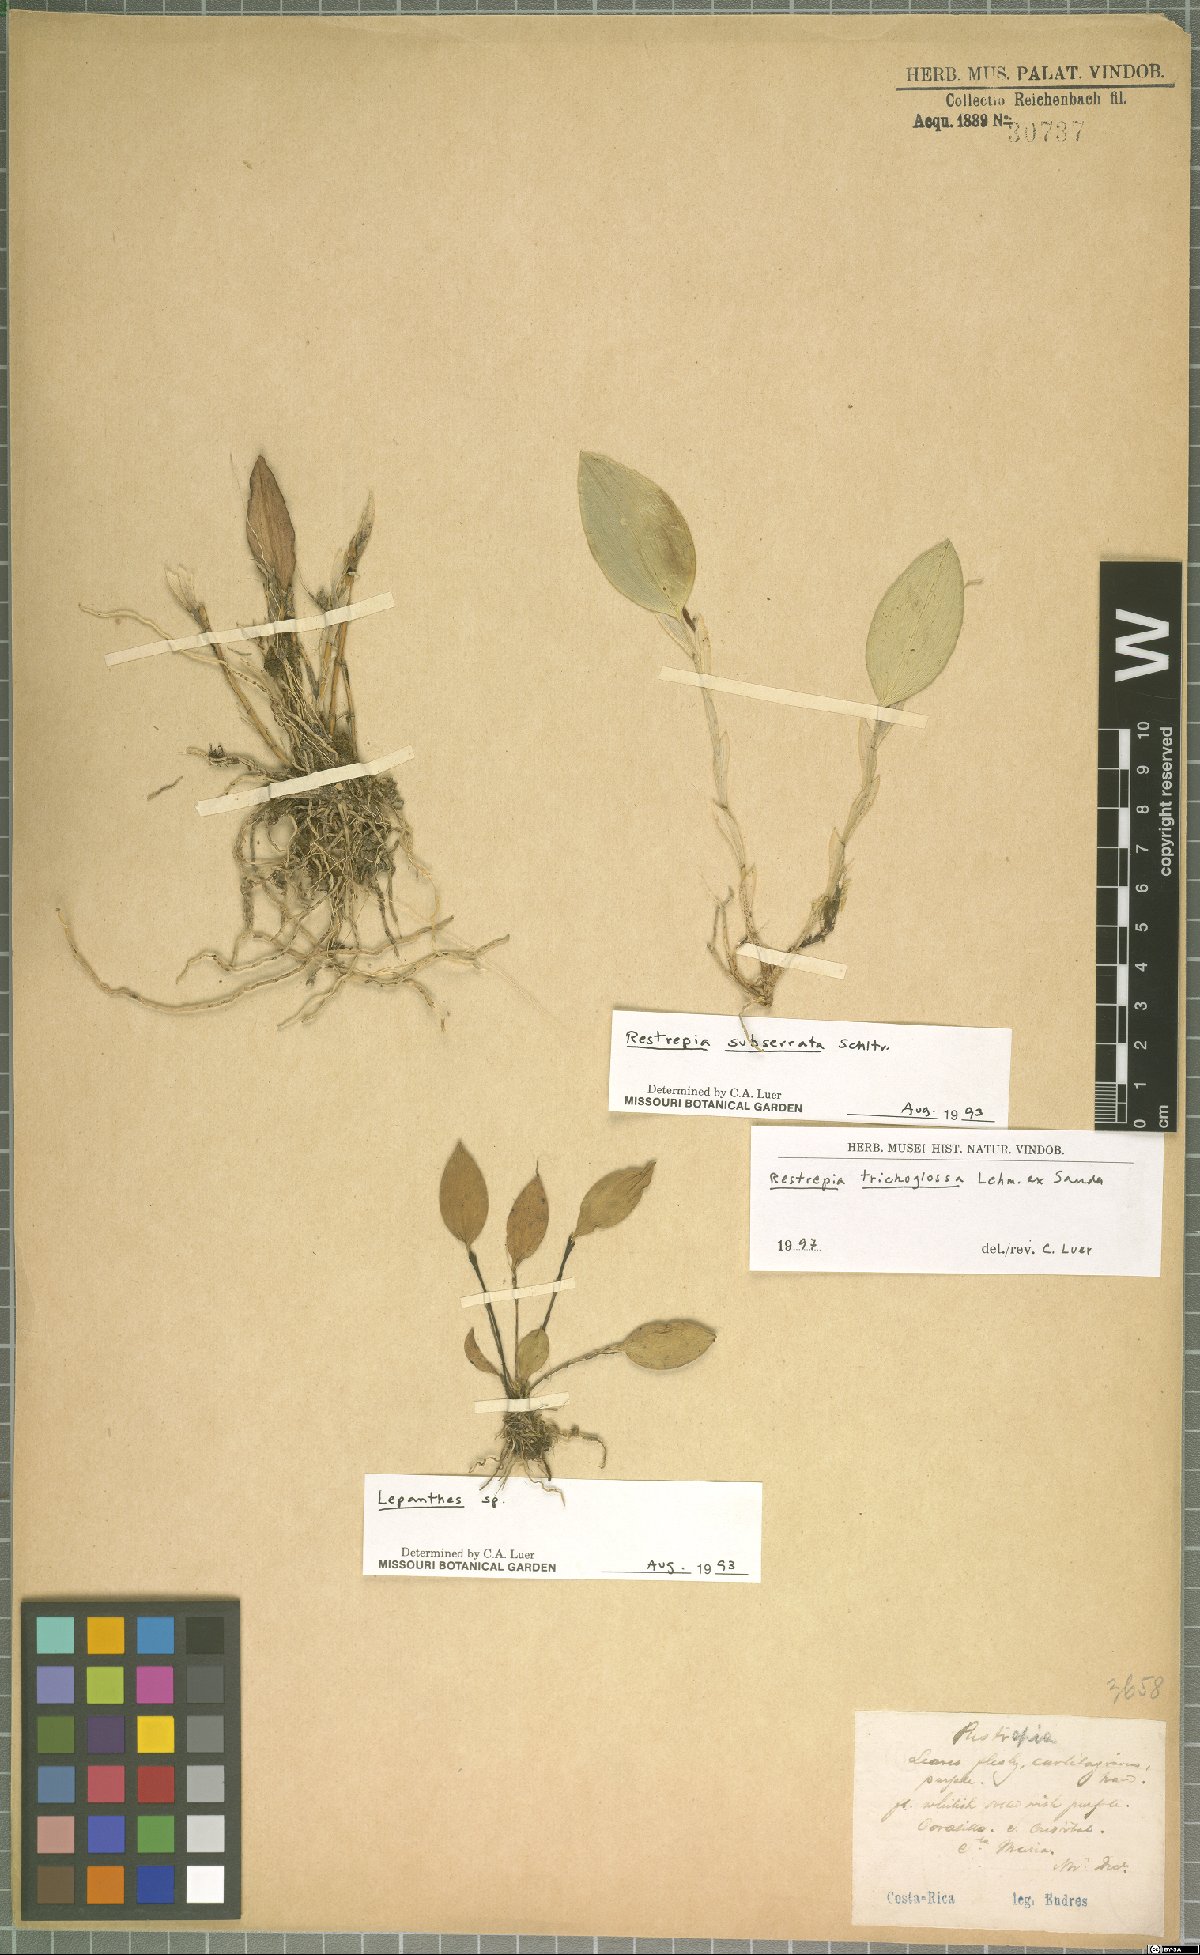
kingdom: Plantae
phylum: Tracheophyta
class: Liliopsida
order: Asparagales
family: Orchidaceae
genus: Restrepia
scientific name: Restrepia trichoglossa
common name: Hairy tongued restrepia
